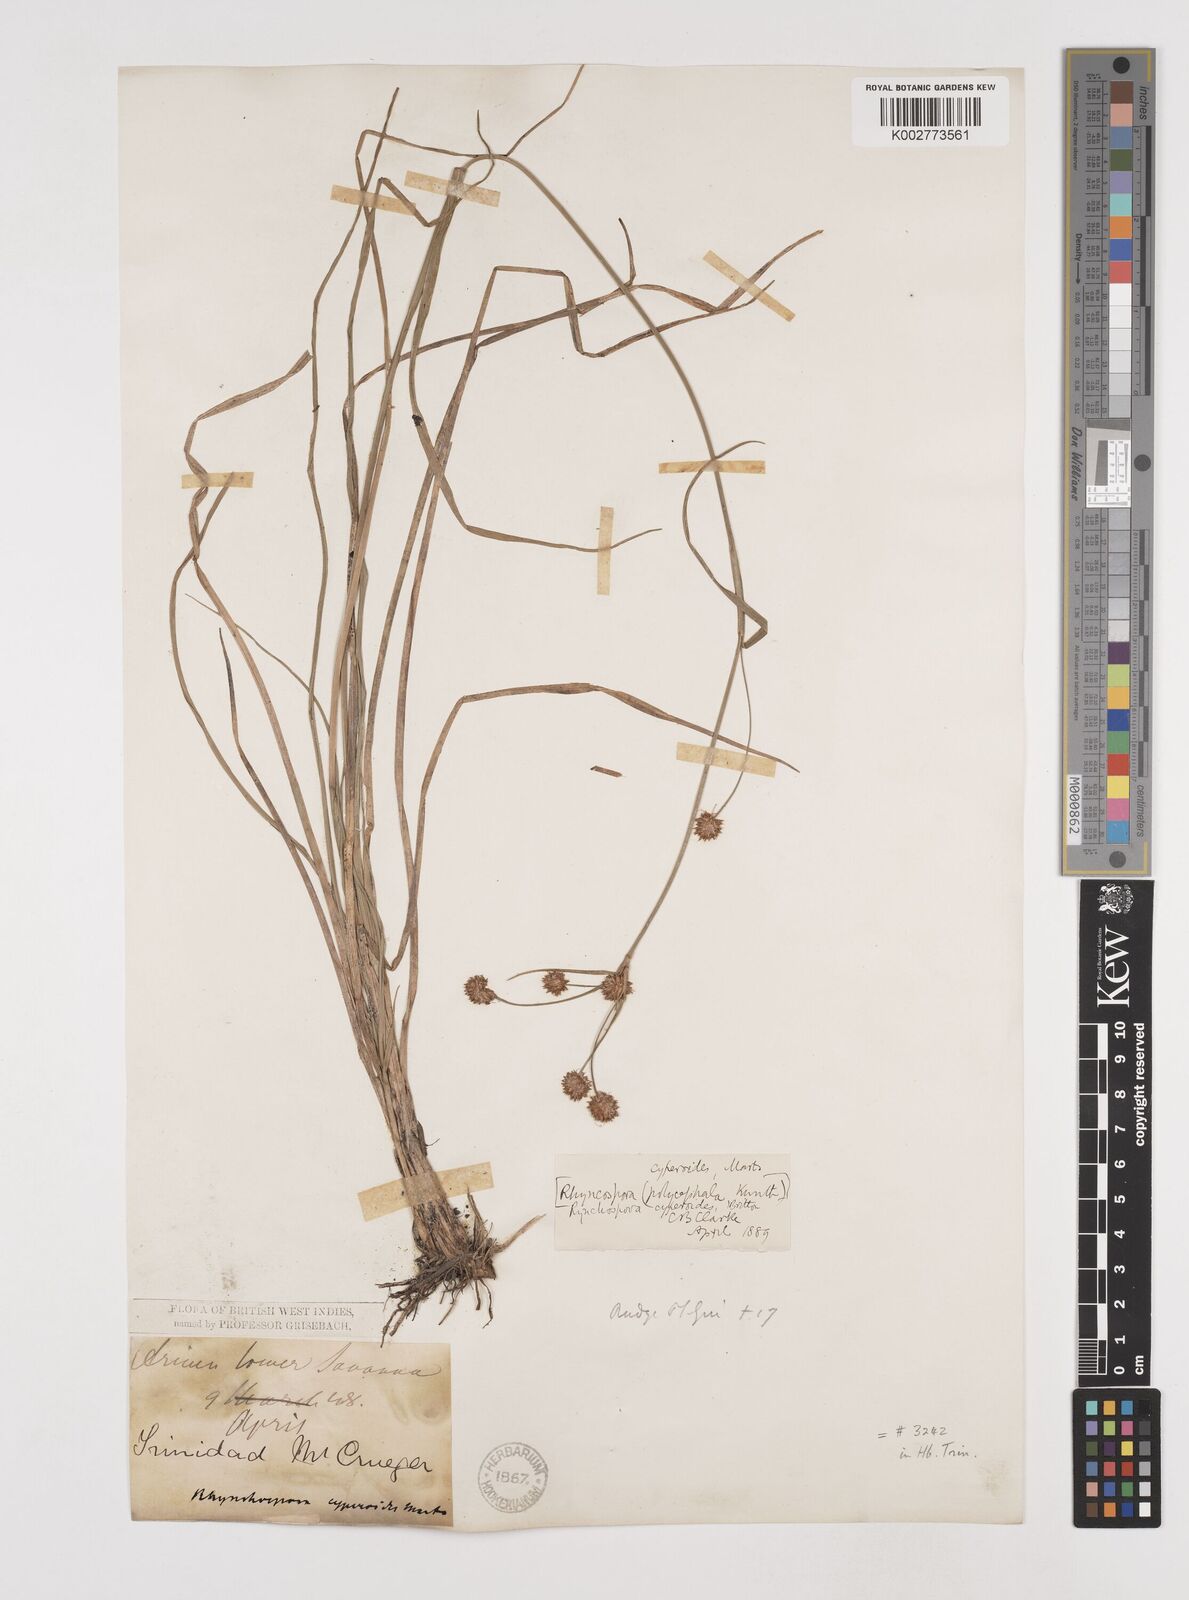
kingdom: Plantae
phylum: Tracheophyta
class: Liliopsida
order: Poales
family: Cyperaceae
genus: Rhynchospora
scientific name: Rhynchospora holoschoenoides
